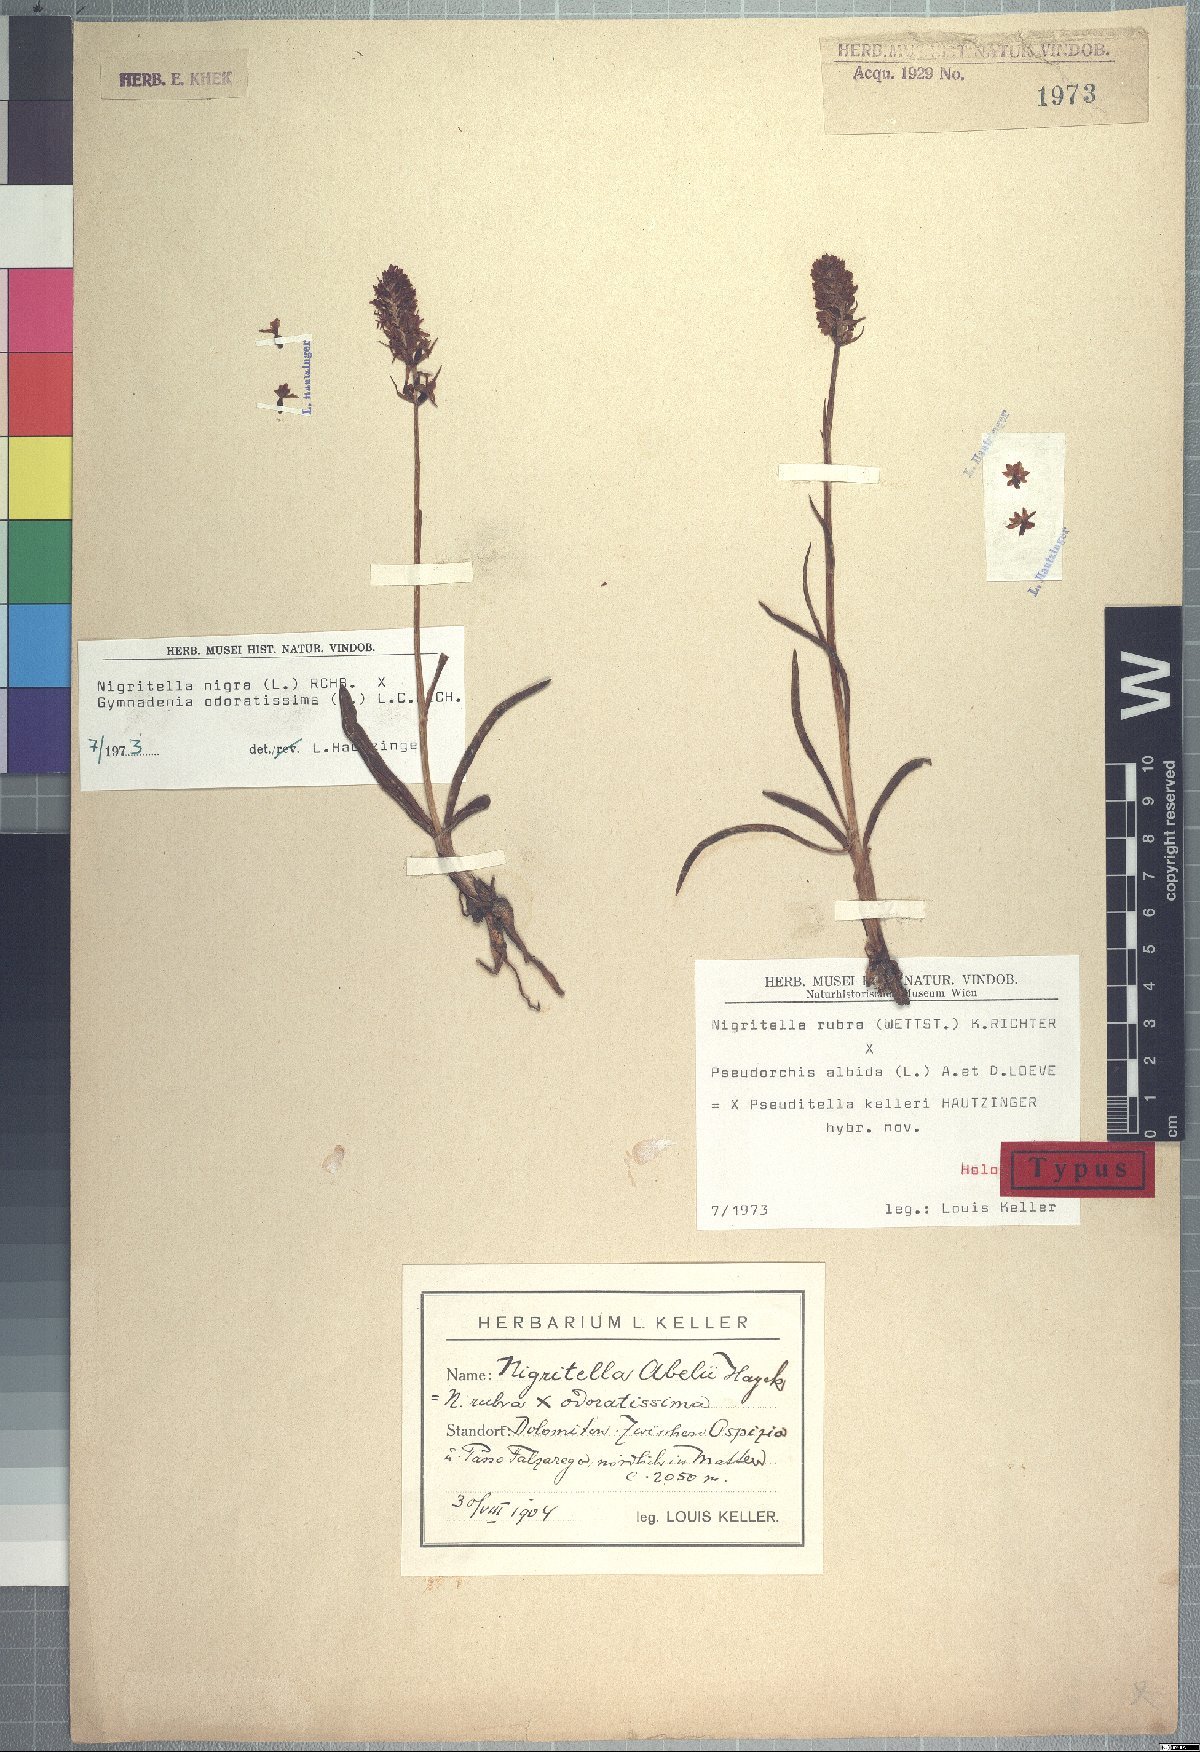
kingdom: Plantae
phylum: Tracheophyta
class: Liliopsida
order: Asparagales
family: Orchidaceae
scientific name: Orchidaceae
